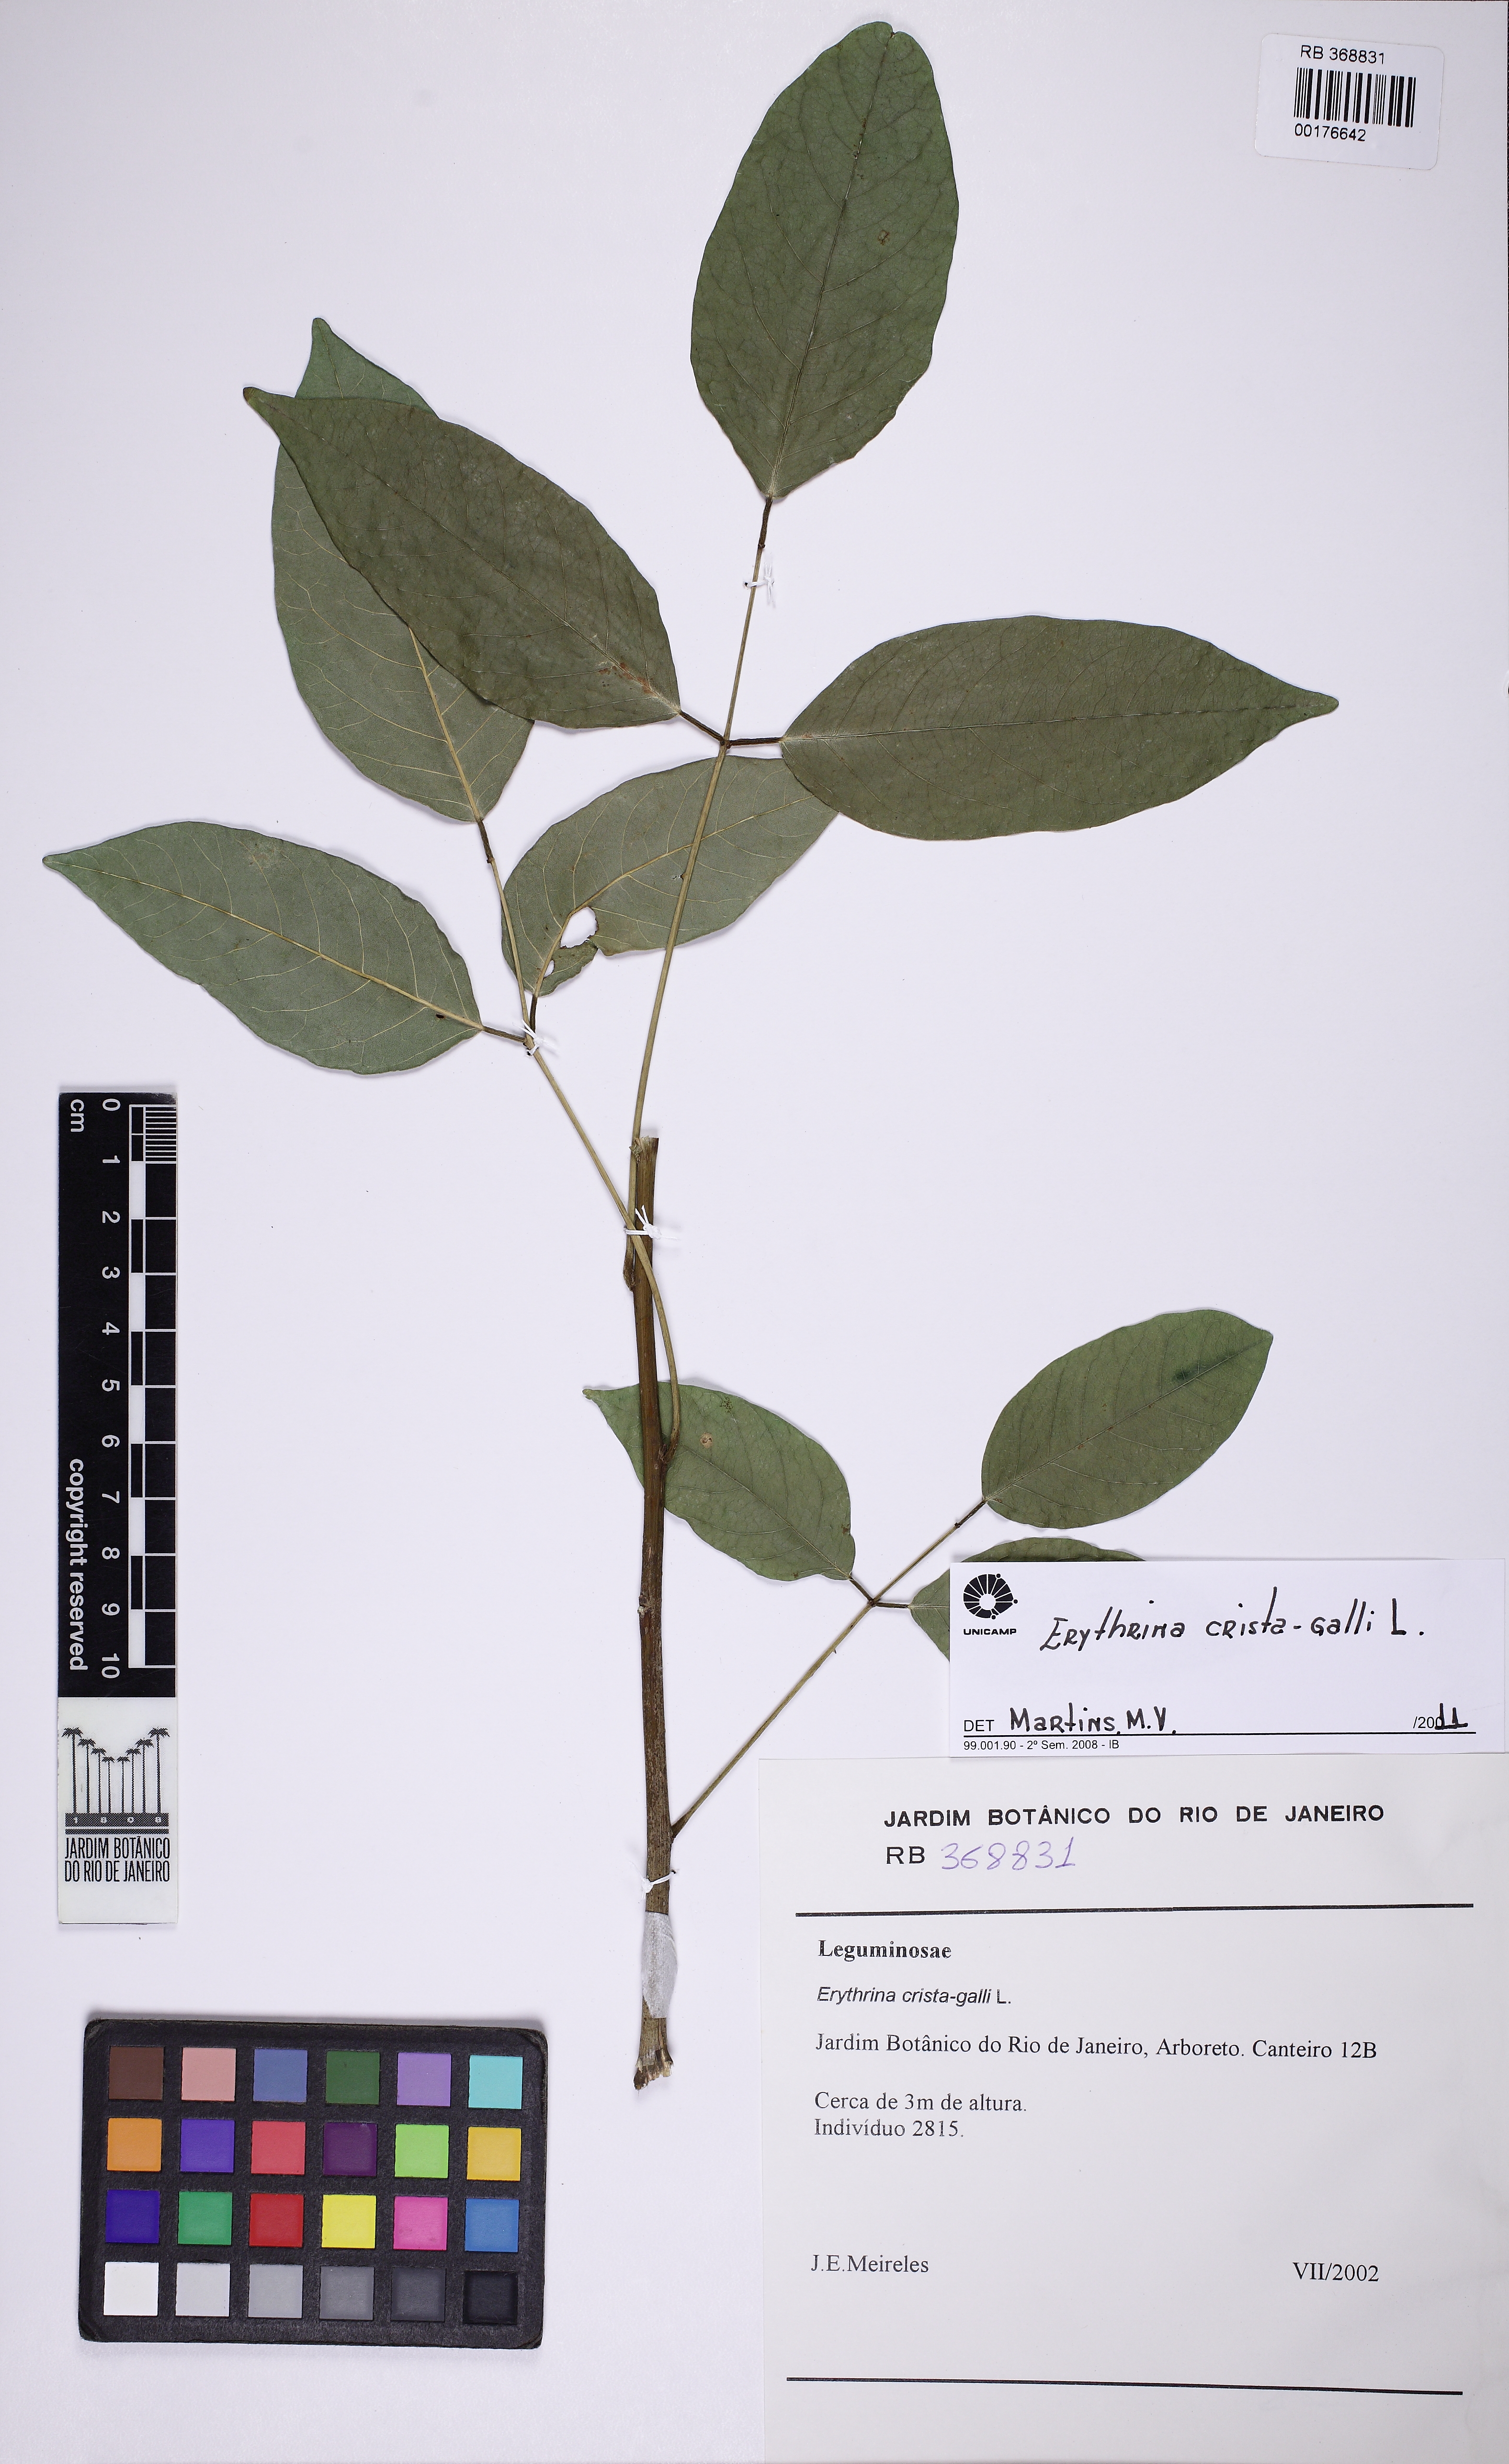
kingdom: Plantae
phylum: Tracheophyta
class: Magnoliopsida
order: Fabales
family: Fabaceae
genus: Erythrina
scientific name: Erythrina crista-galli
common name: Cockspur coral tree
